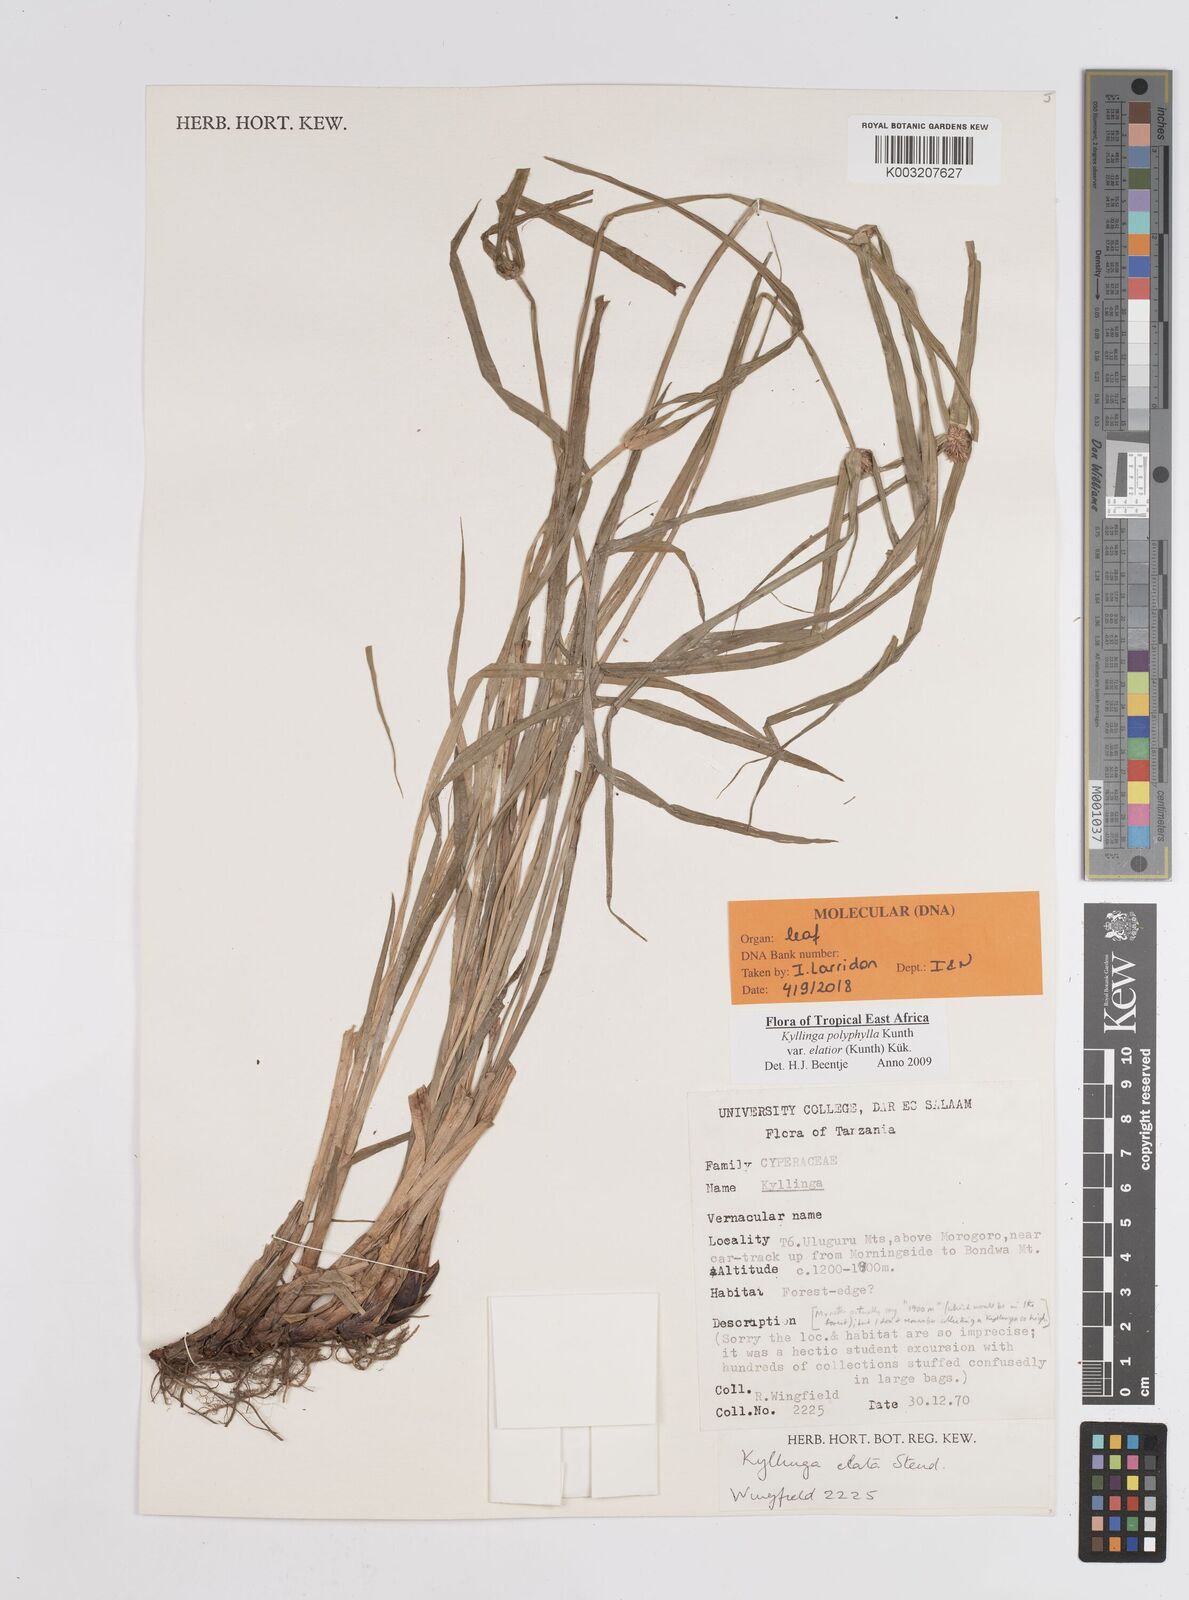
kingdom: Plantae
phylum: Tracheophyta
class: Liliopsida
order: Poales
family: Cyperaceae
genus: Cyperus
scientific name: Cyperus
